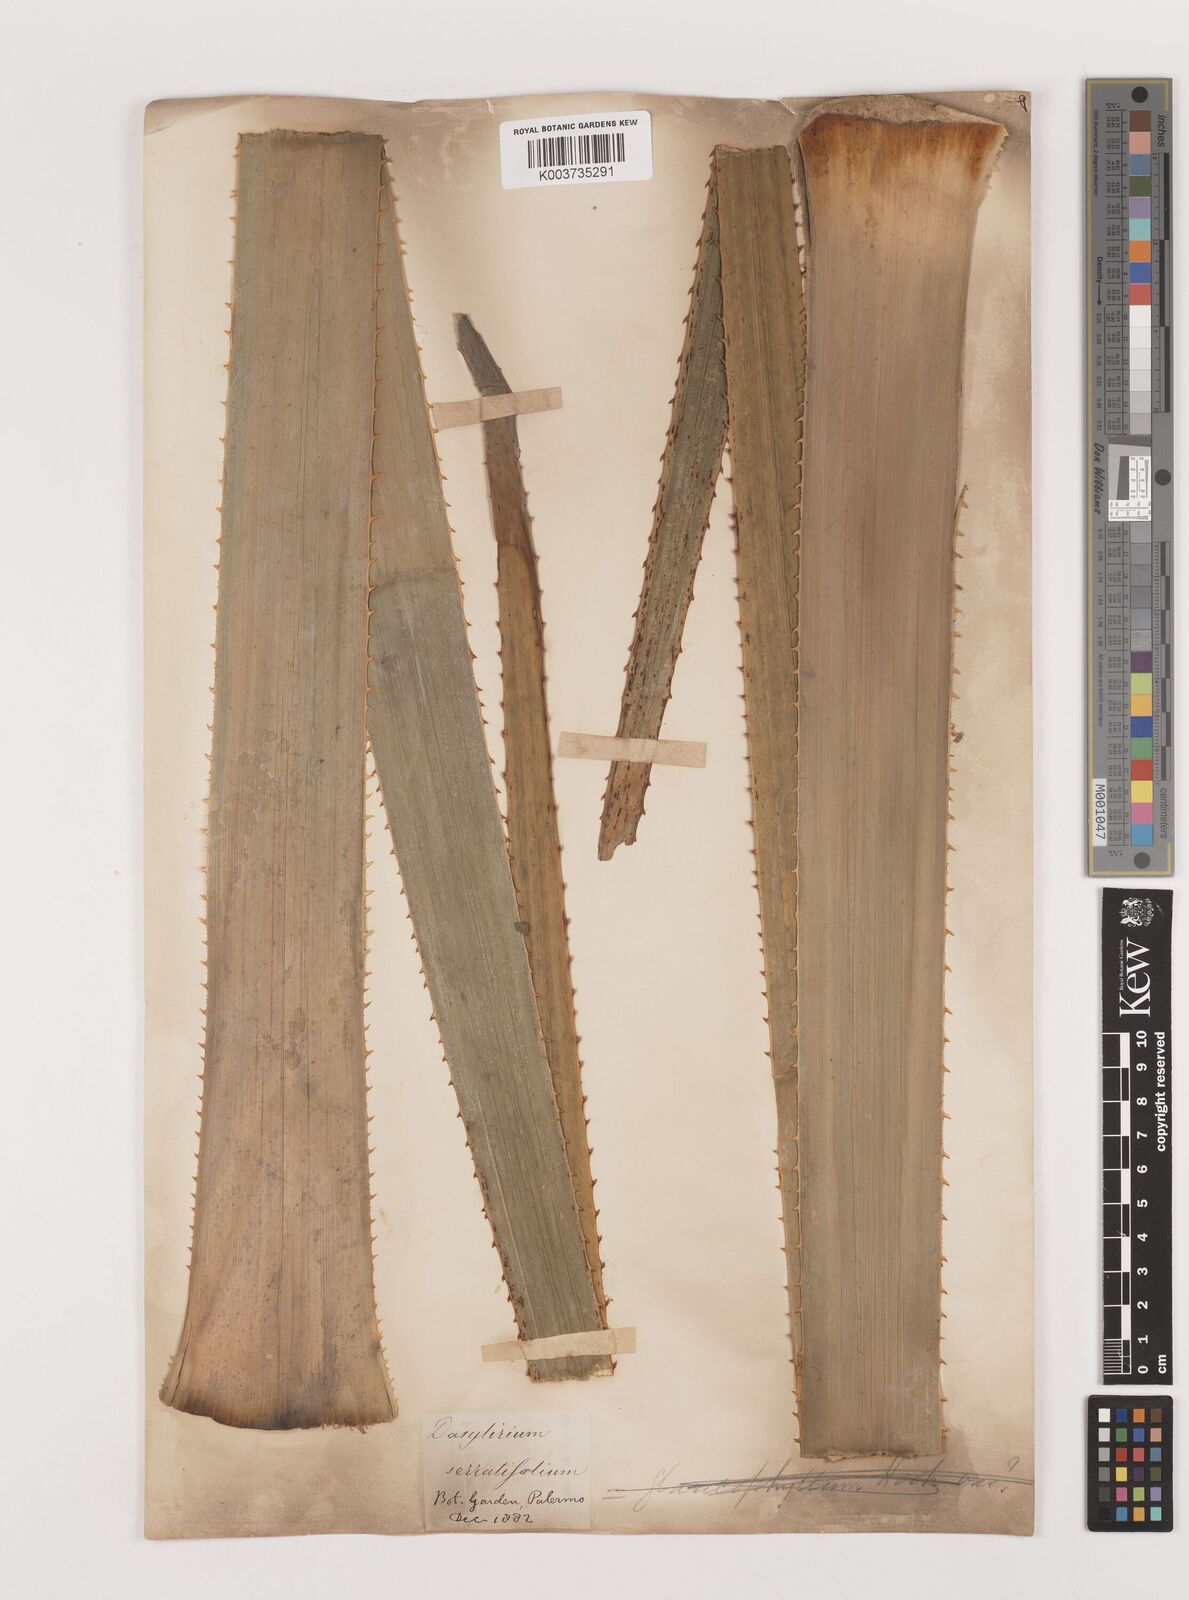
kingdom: Plantae
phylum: Tracheophyta
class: Liliopsida
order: Asparagales
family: Asparagaceae
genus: Dasylirion
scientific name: Dasylirion serratifolium
